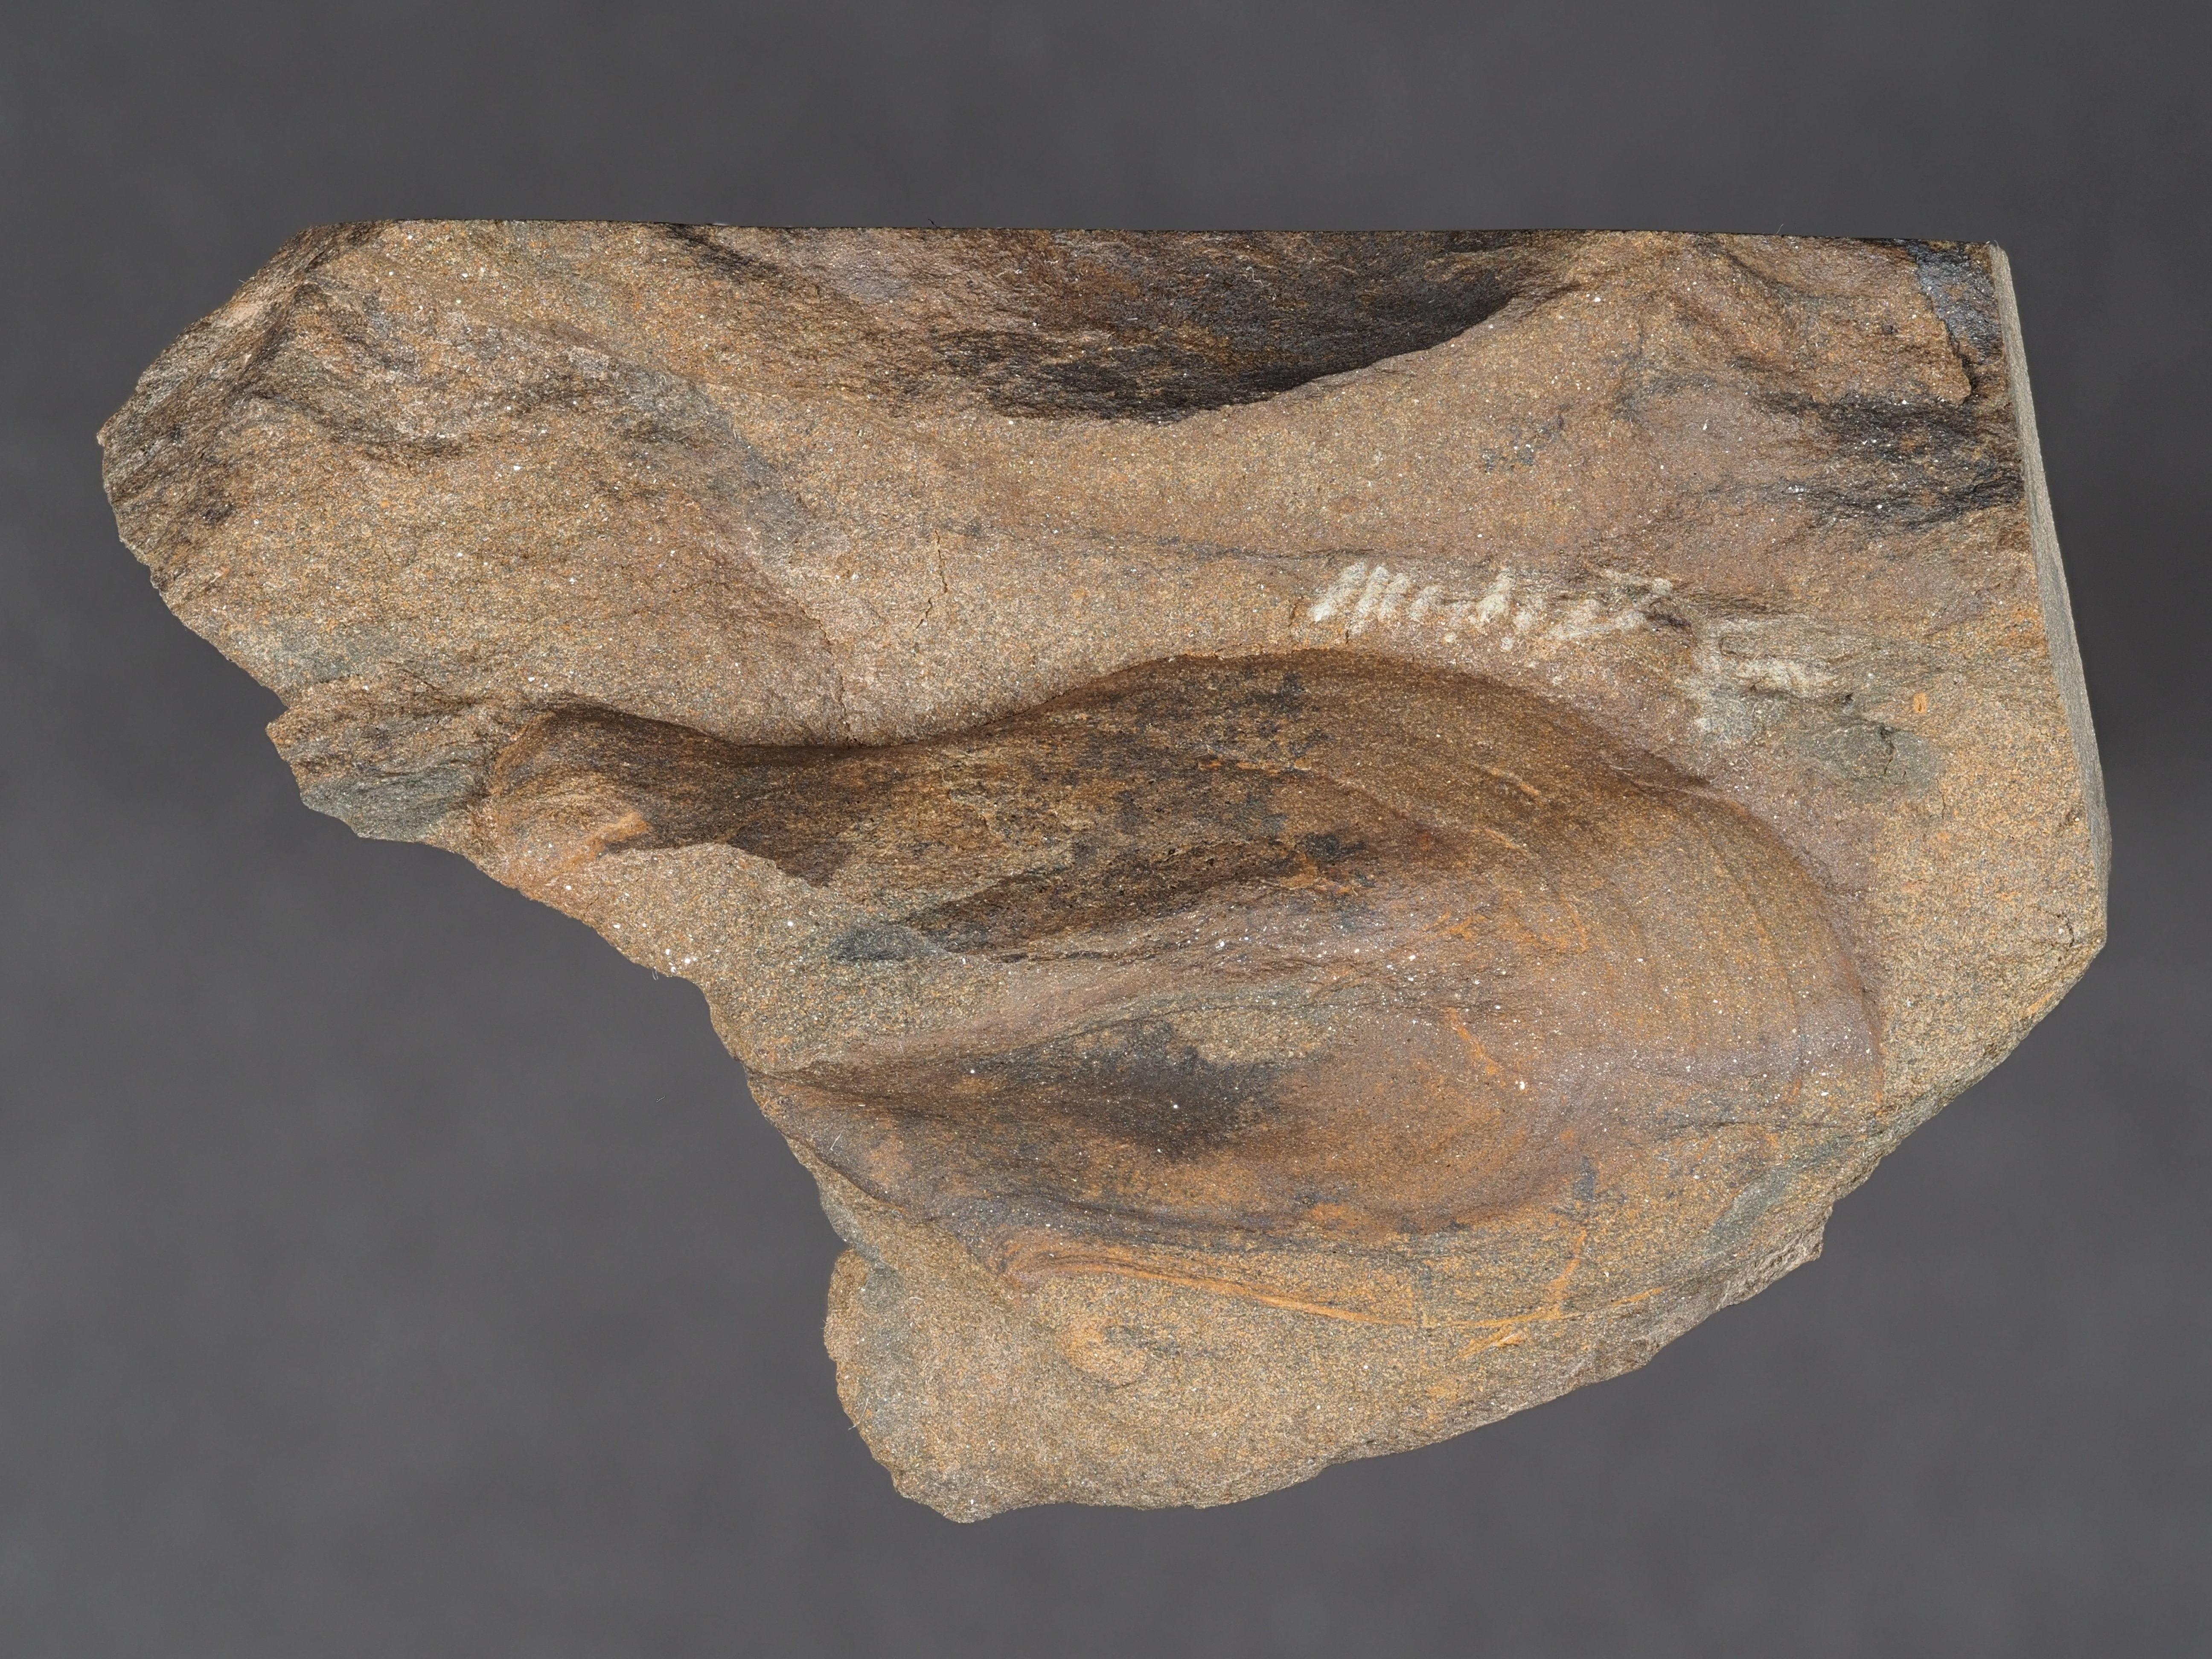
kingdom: Animalia
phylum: Mollusca
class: Bivalvia
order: Ostreida
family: Pterineidae
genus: Leptodesma
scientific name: Leptodesma
